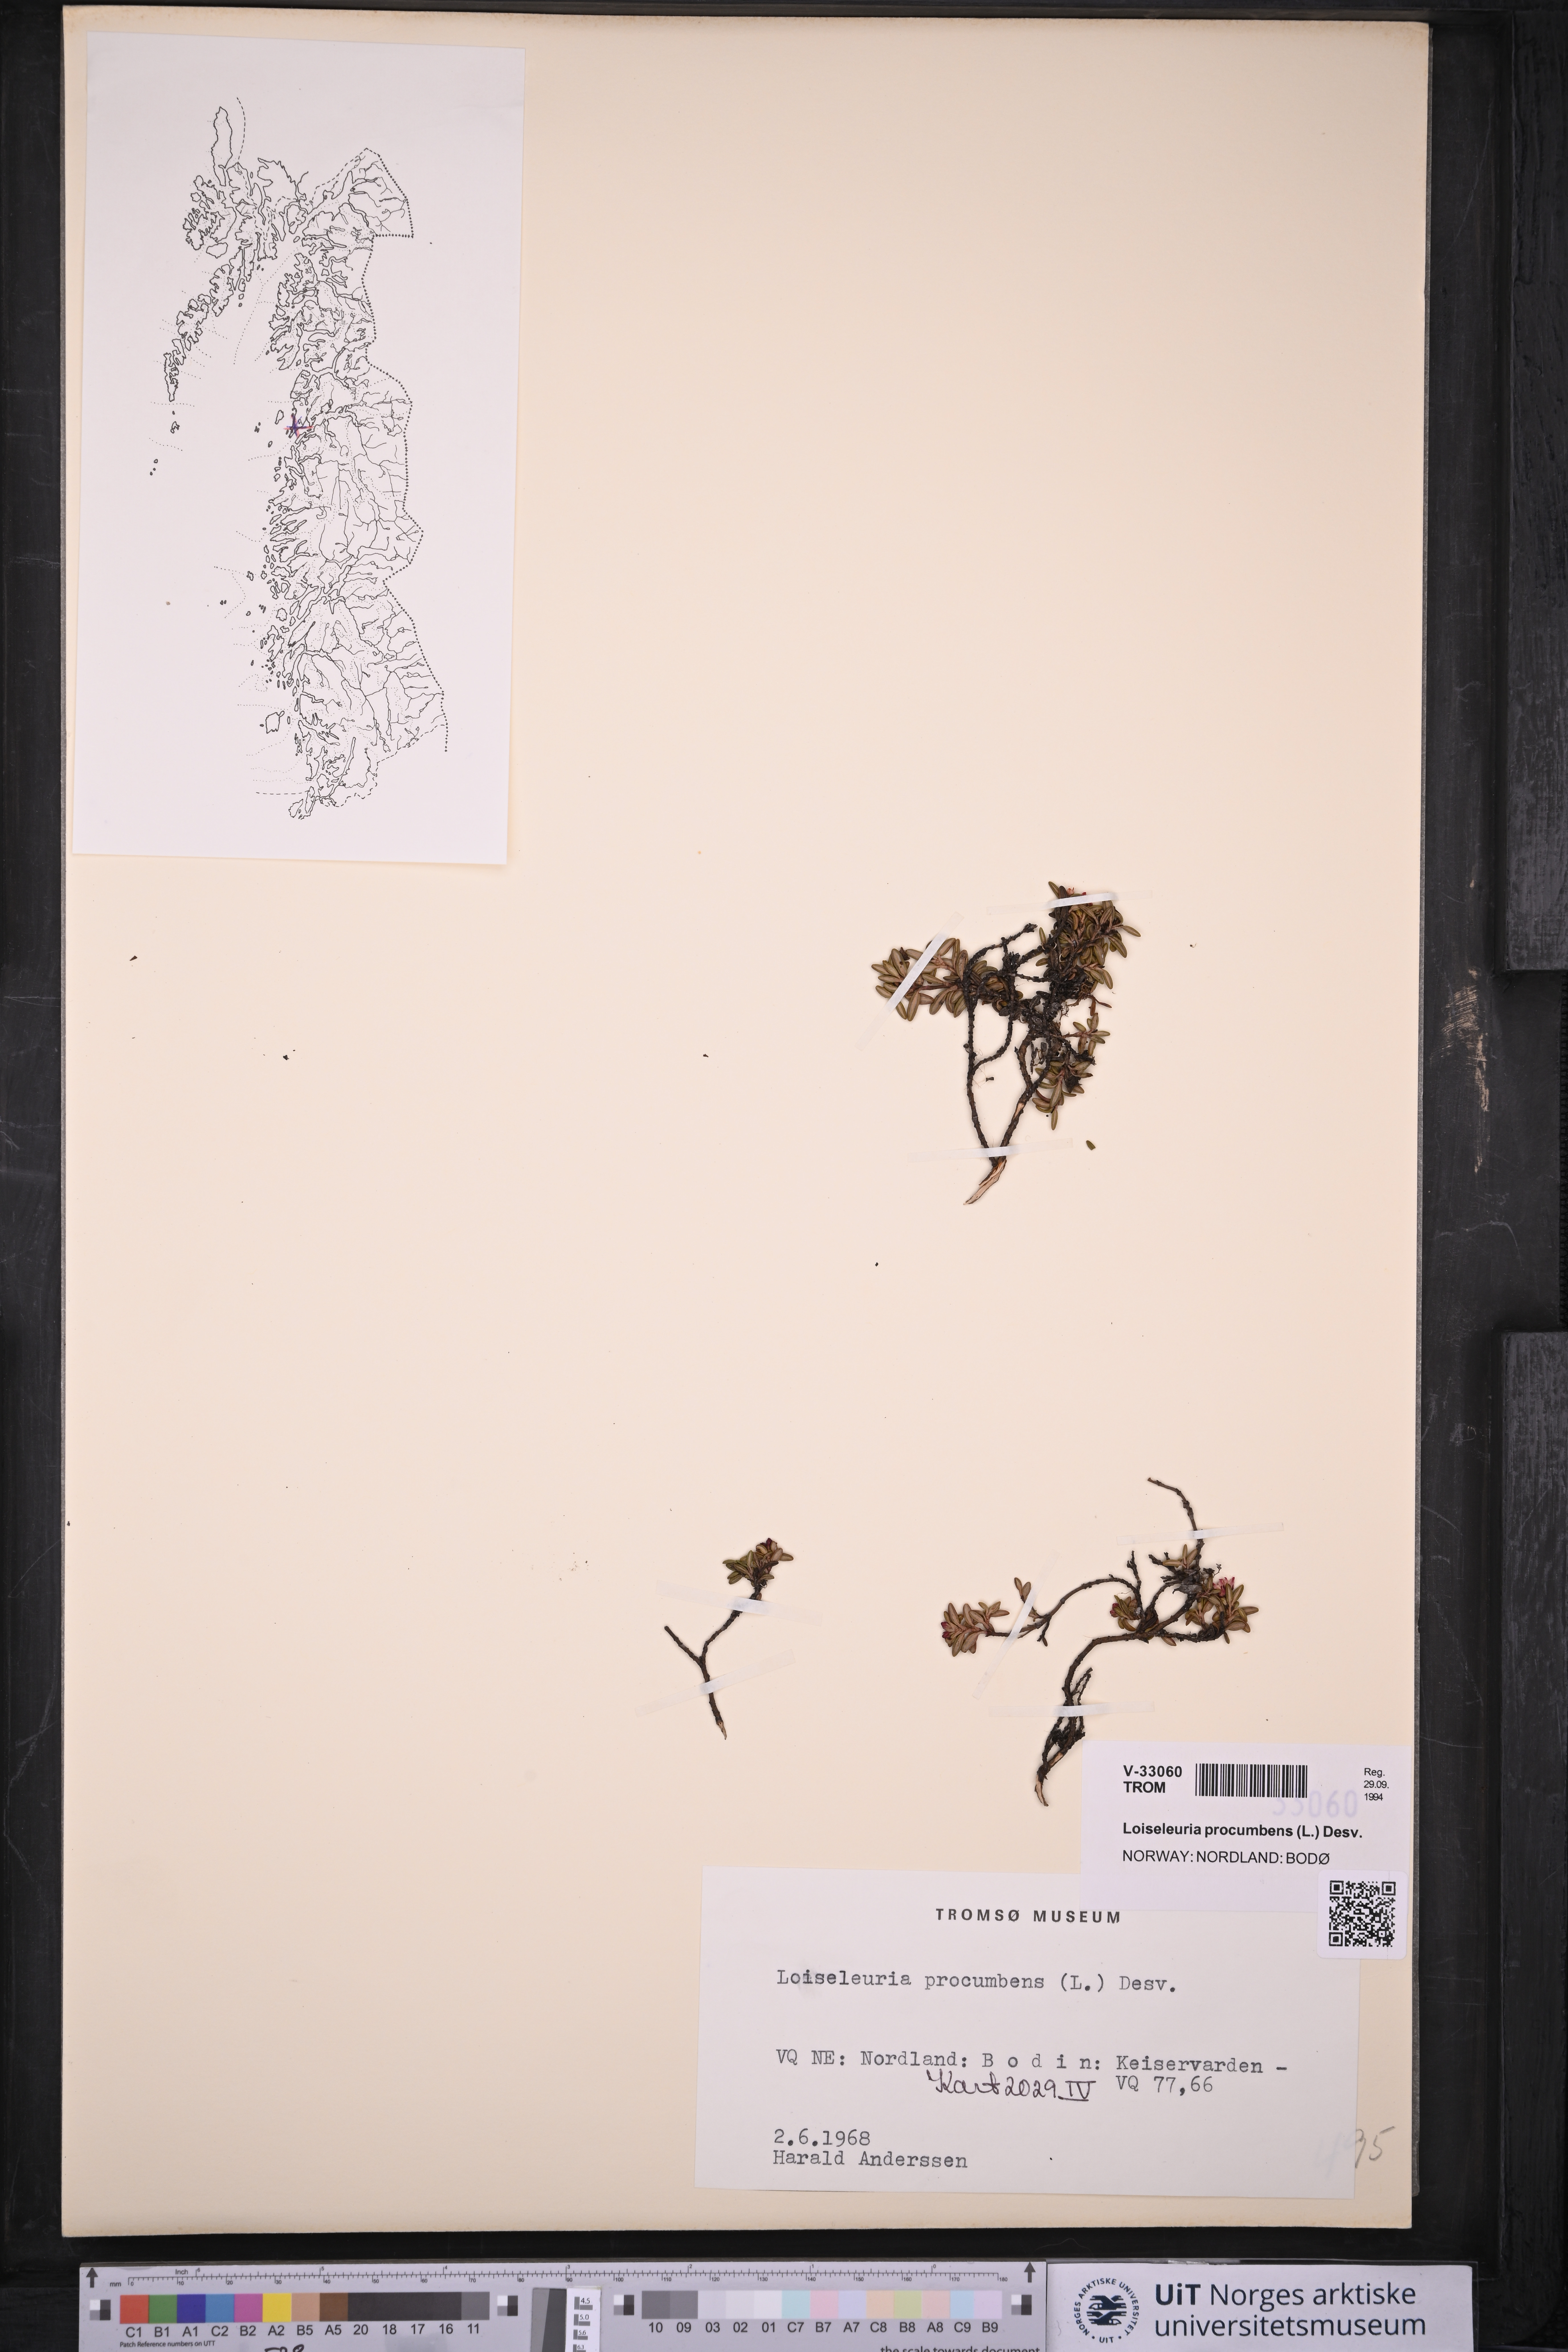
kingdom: Plantae
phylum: Tracheophyta
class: Magnoliopsida
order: Ericales
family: Ericaceae
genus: Kalmia
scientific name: Kalmia procumbens
